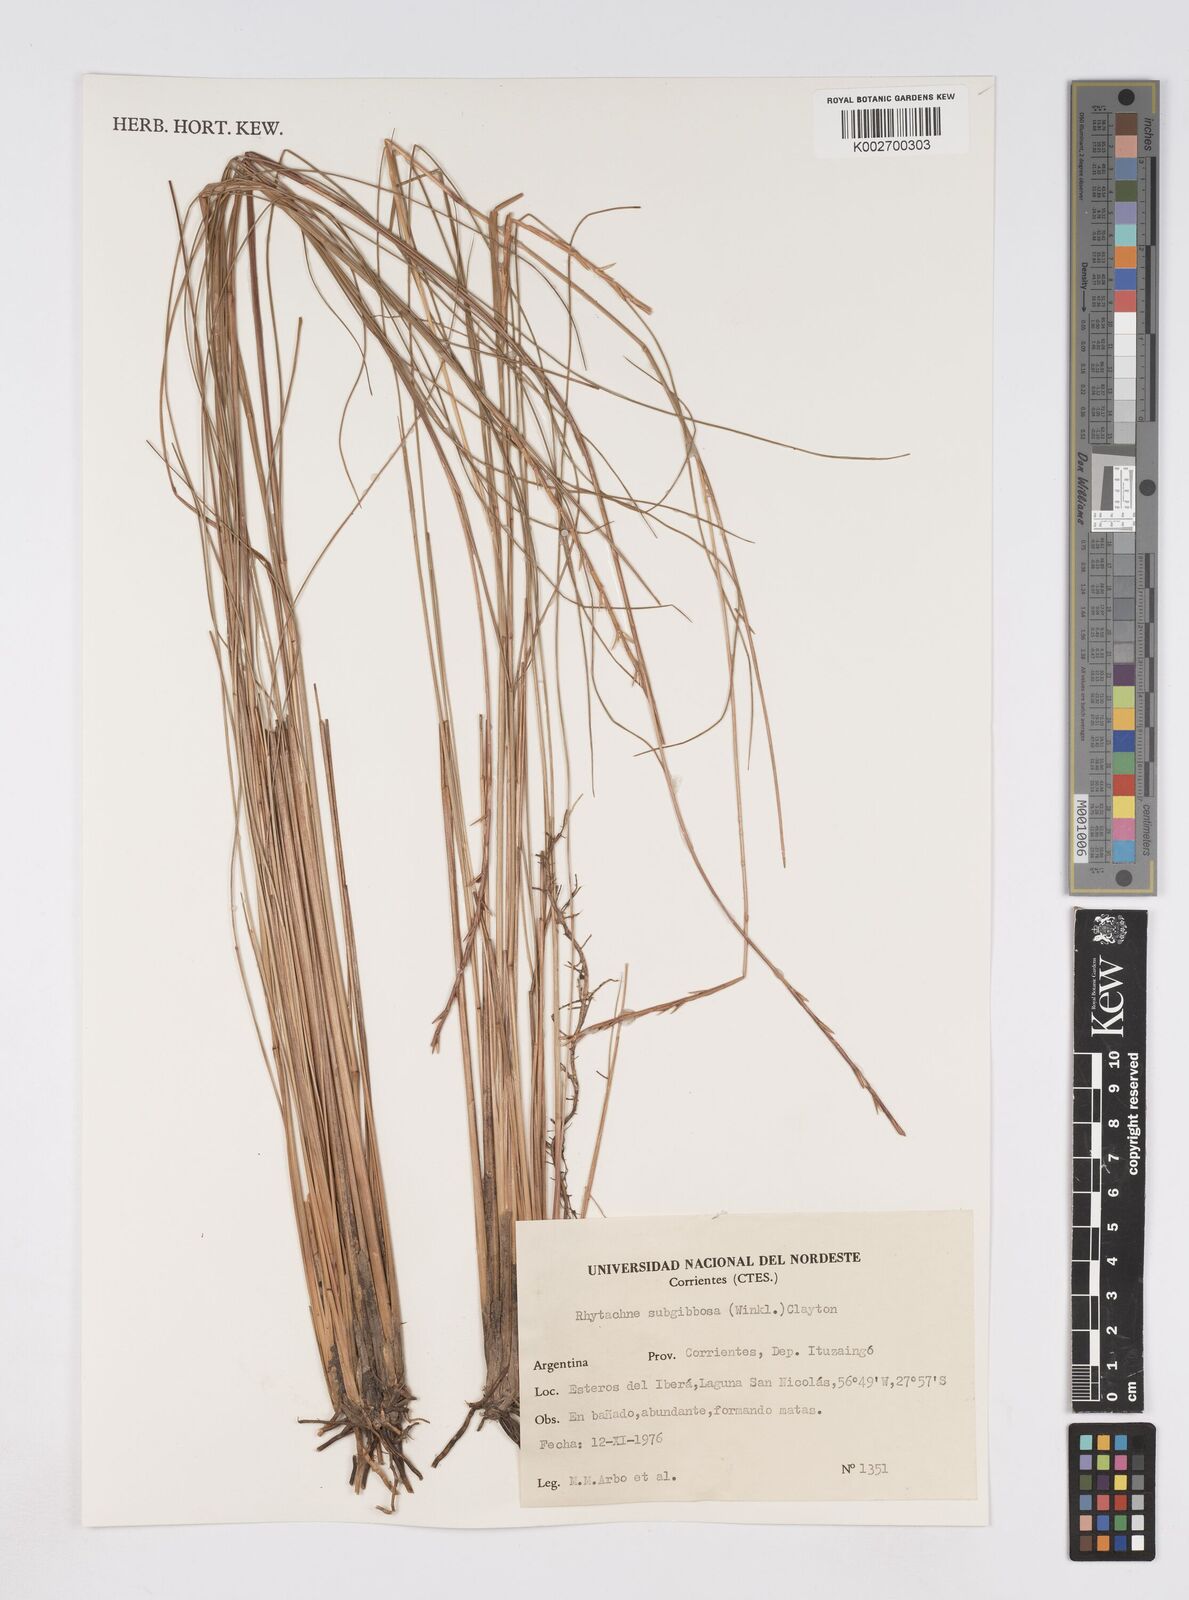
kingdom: Plantae
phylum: Tracheophyta
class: Liliopsida
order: Poales
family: Poaceae
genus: Rhytachne
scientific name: Rhytachne subgibbosa
